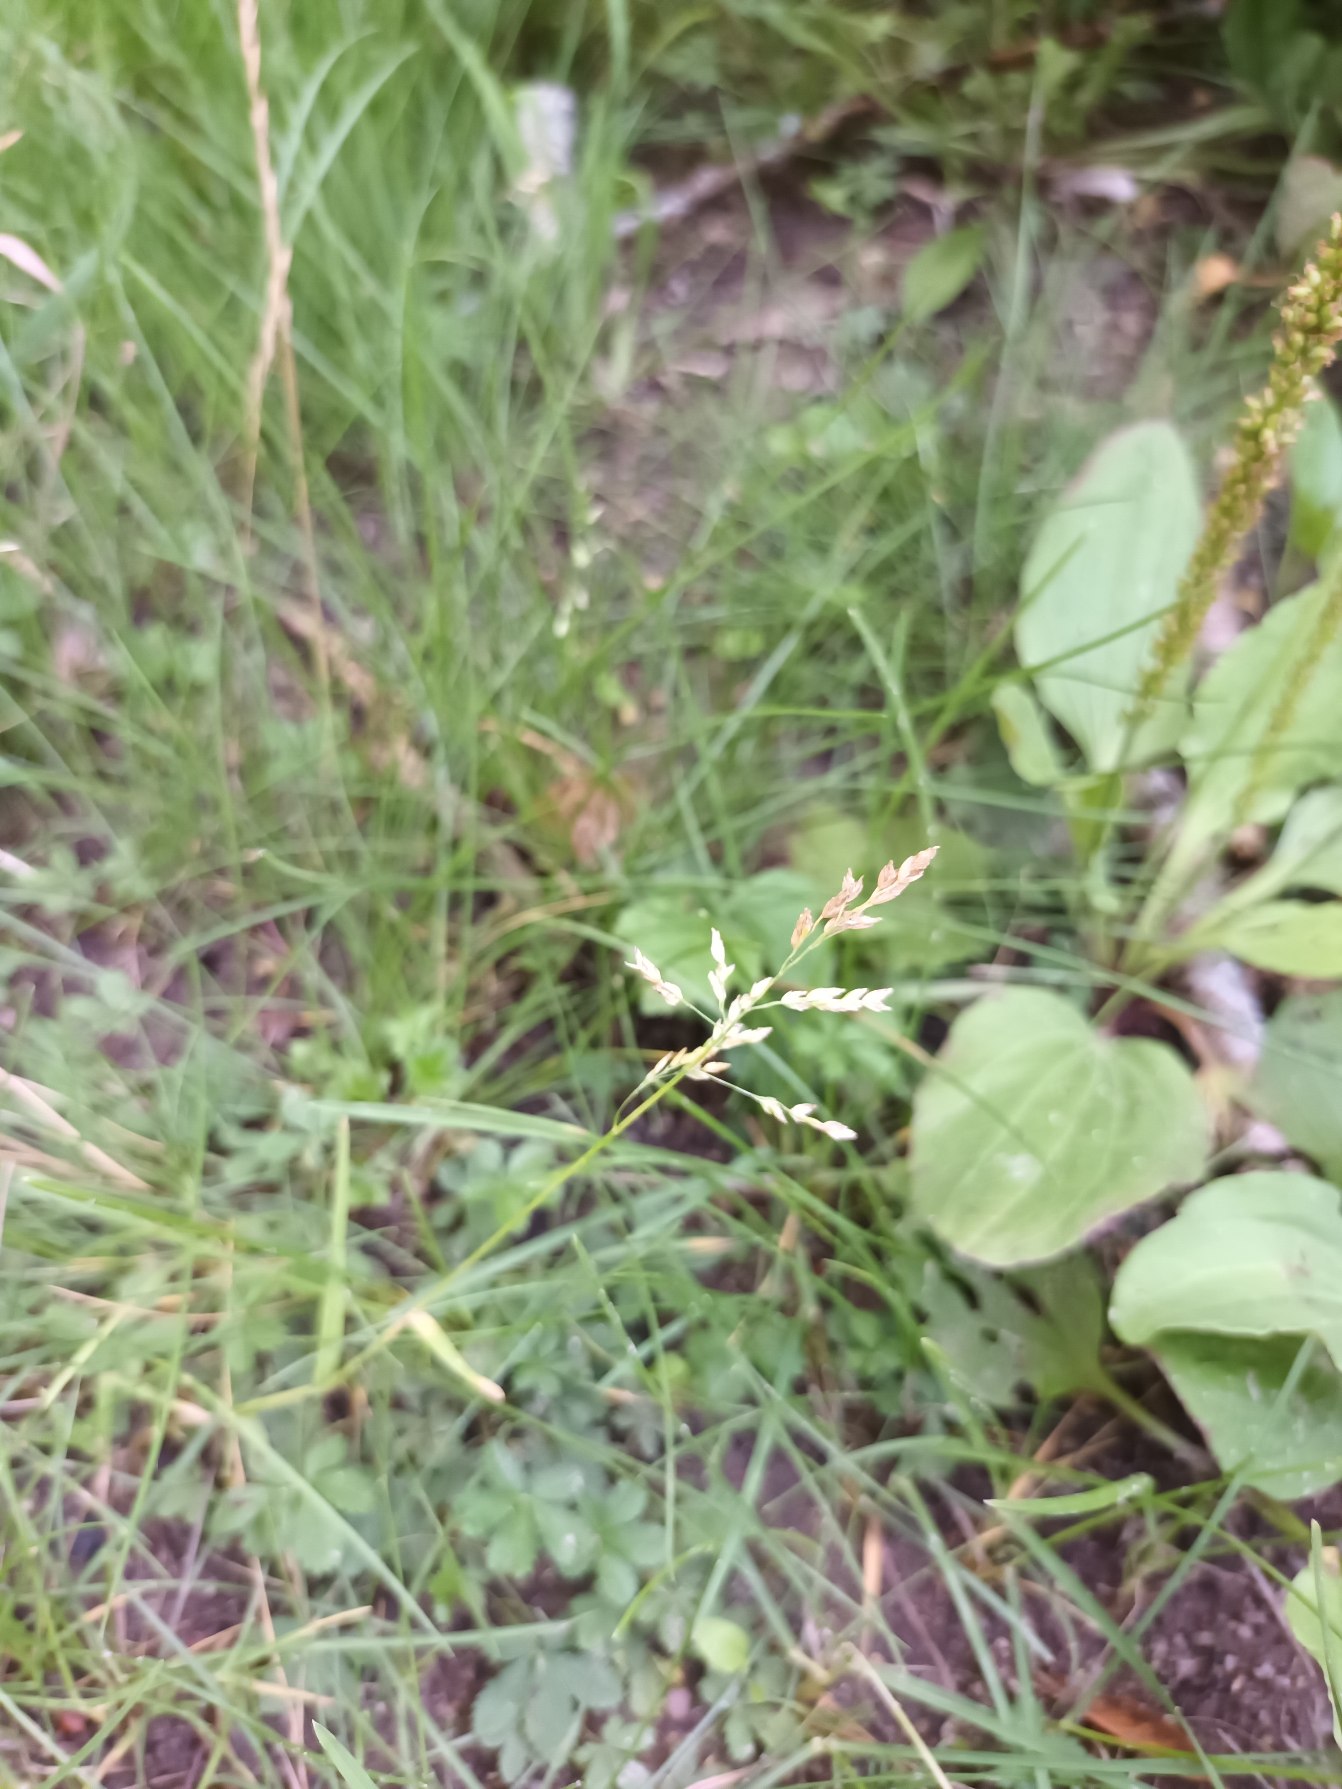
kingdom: Plantae
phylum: Tracheophyta
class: Liliopsida
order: Poales
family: Poaceae
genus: Poa
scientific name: Poa annua
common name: Enårig rapgræs
